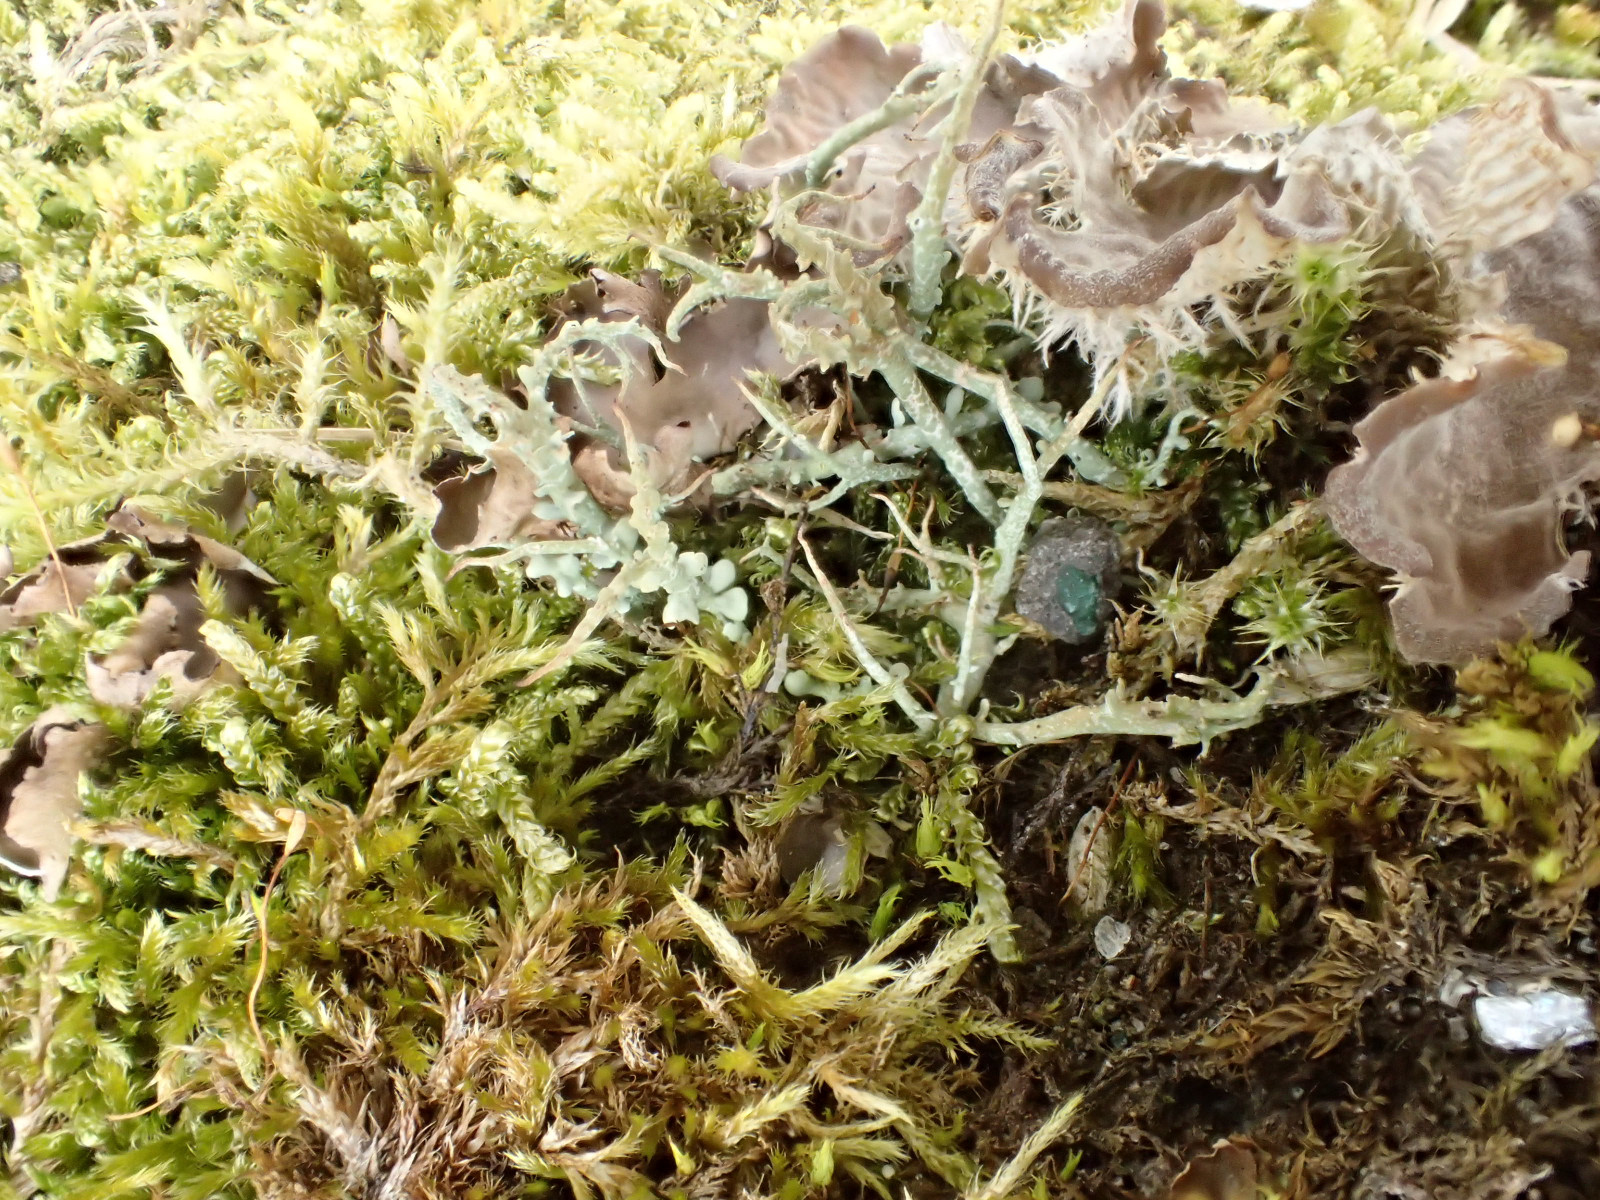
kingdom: Fungi
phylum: Ascomycota
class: Lecanoromycetes
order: Lecanorales
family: Cladoniaceae
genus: Cladonia
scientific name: Cladonia scabriuscula
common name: ru bægerlav
